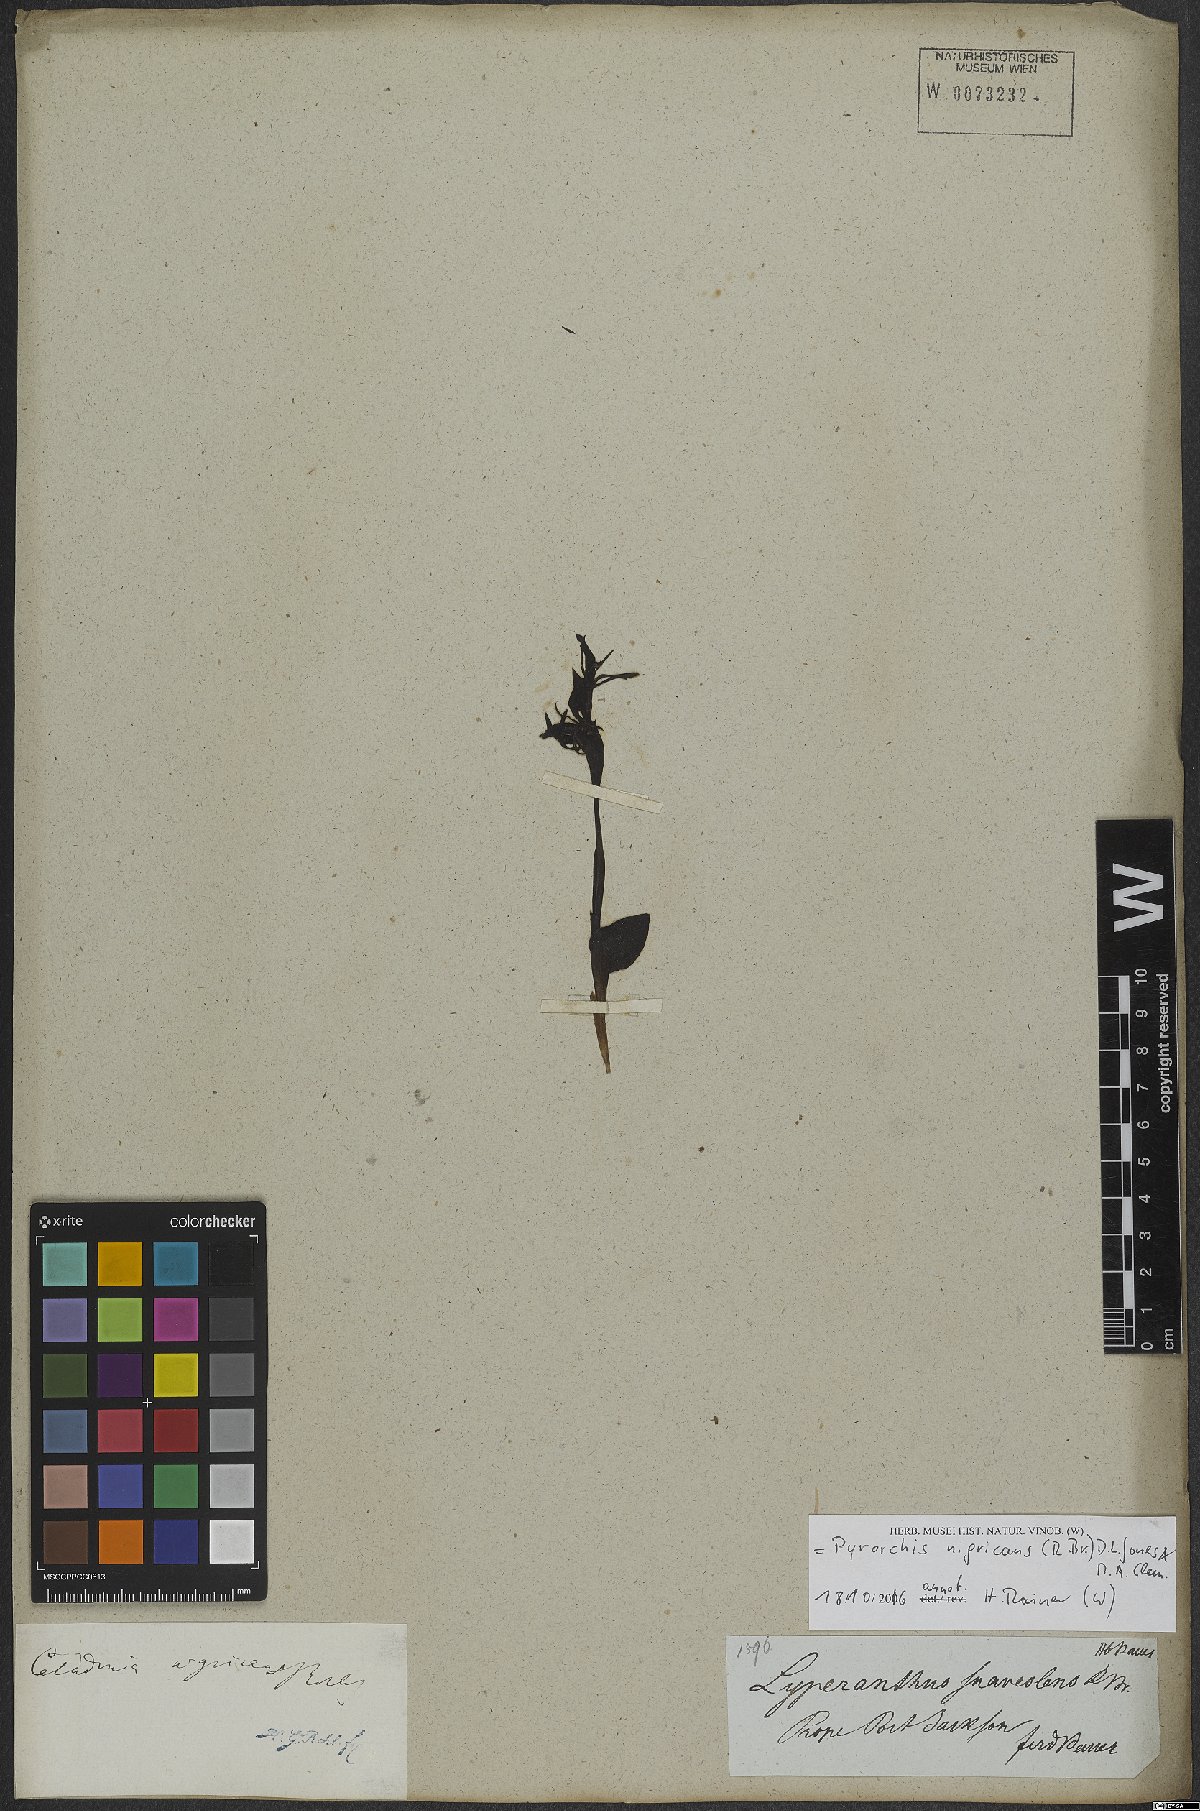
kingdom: Plantae
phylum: Tracheophyta
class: Liliopsida
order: Asparagales
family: Orchidaceae
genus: Pyrorchis
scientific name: Pyrorchis nigricans
